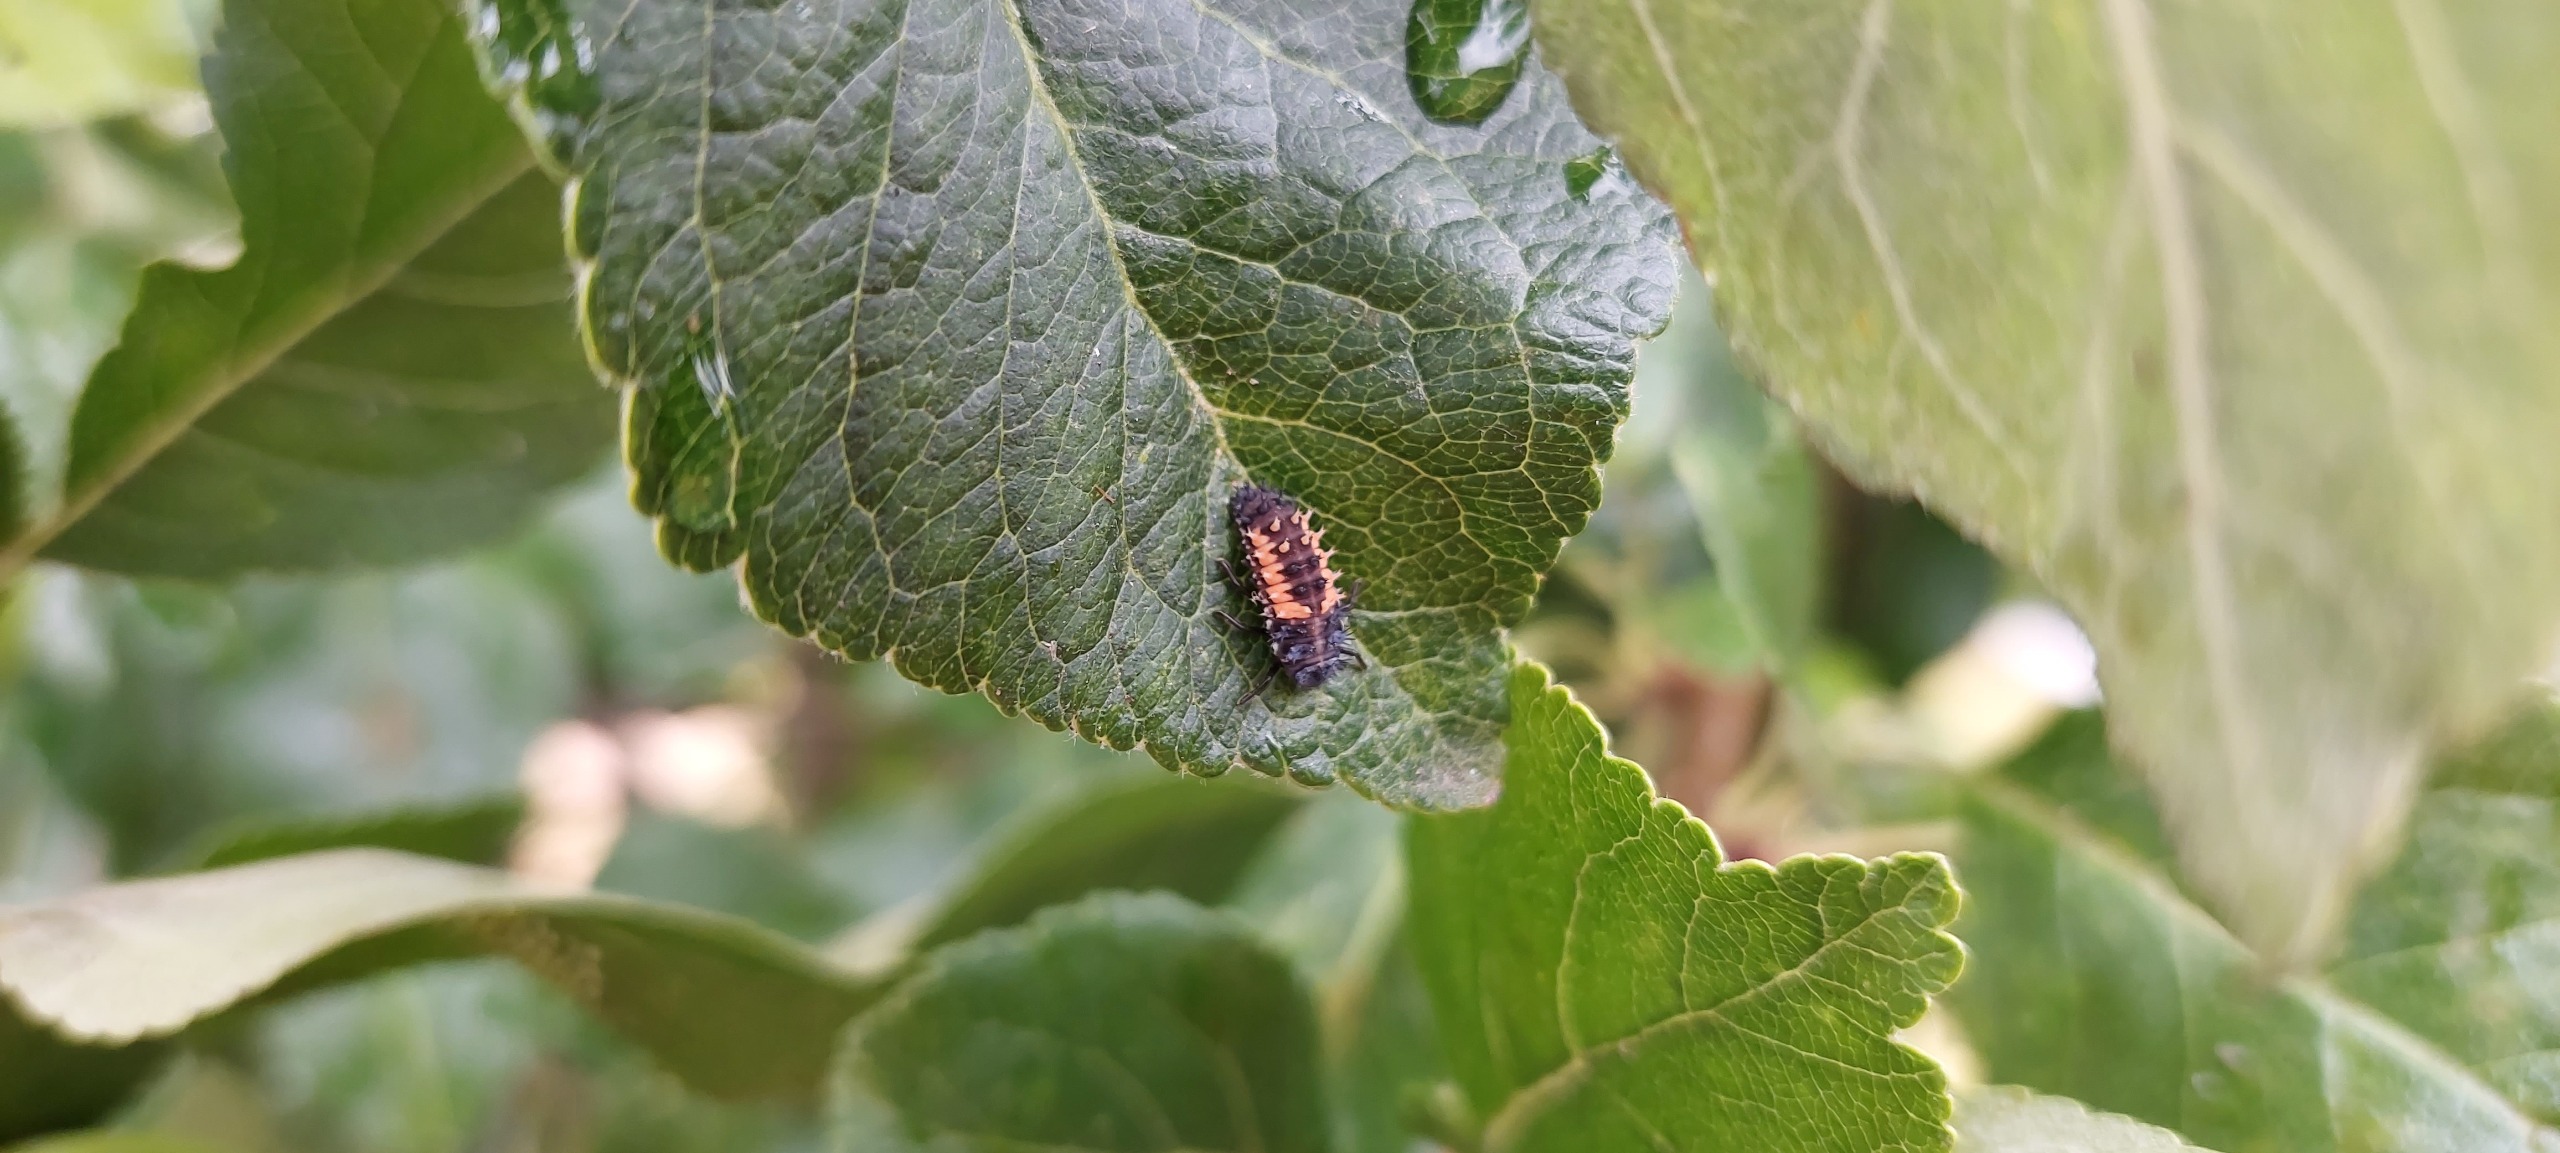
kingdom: Animalia
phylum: Arthropoda
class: Insecta
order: Coleoptera
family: Coccinellidae
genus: Harmonia
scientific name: Harmonia axyridis
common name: Harlekinmariehøne
